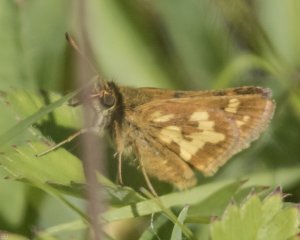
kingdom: Animalia
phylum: Arthropoda
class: Insecta
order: Lepidoptera
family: Hesperiidae
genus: Polites
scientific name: Polites coras
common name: Peck's Skipper
